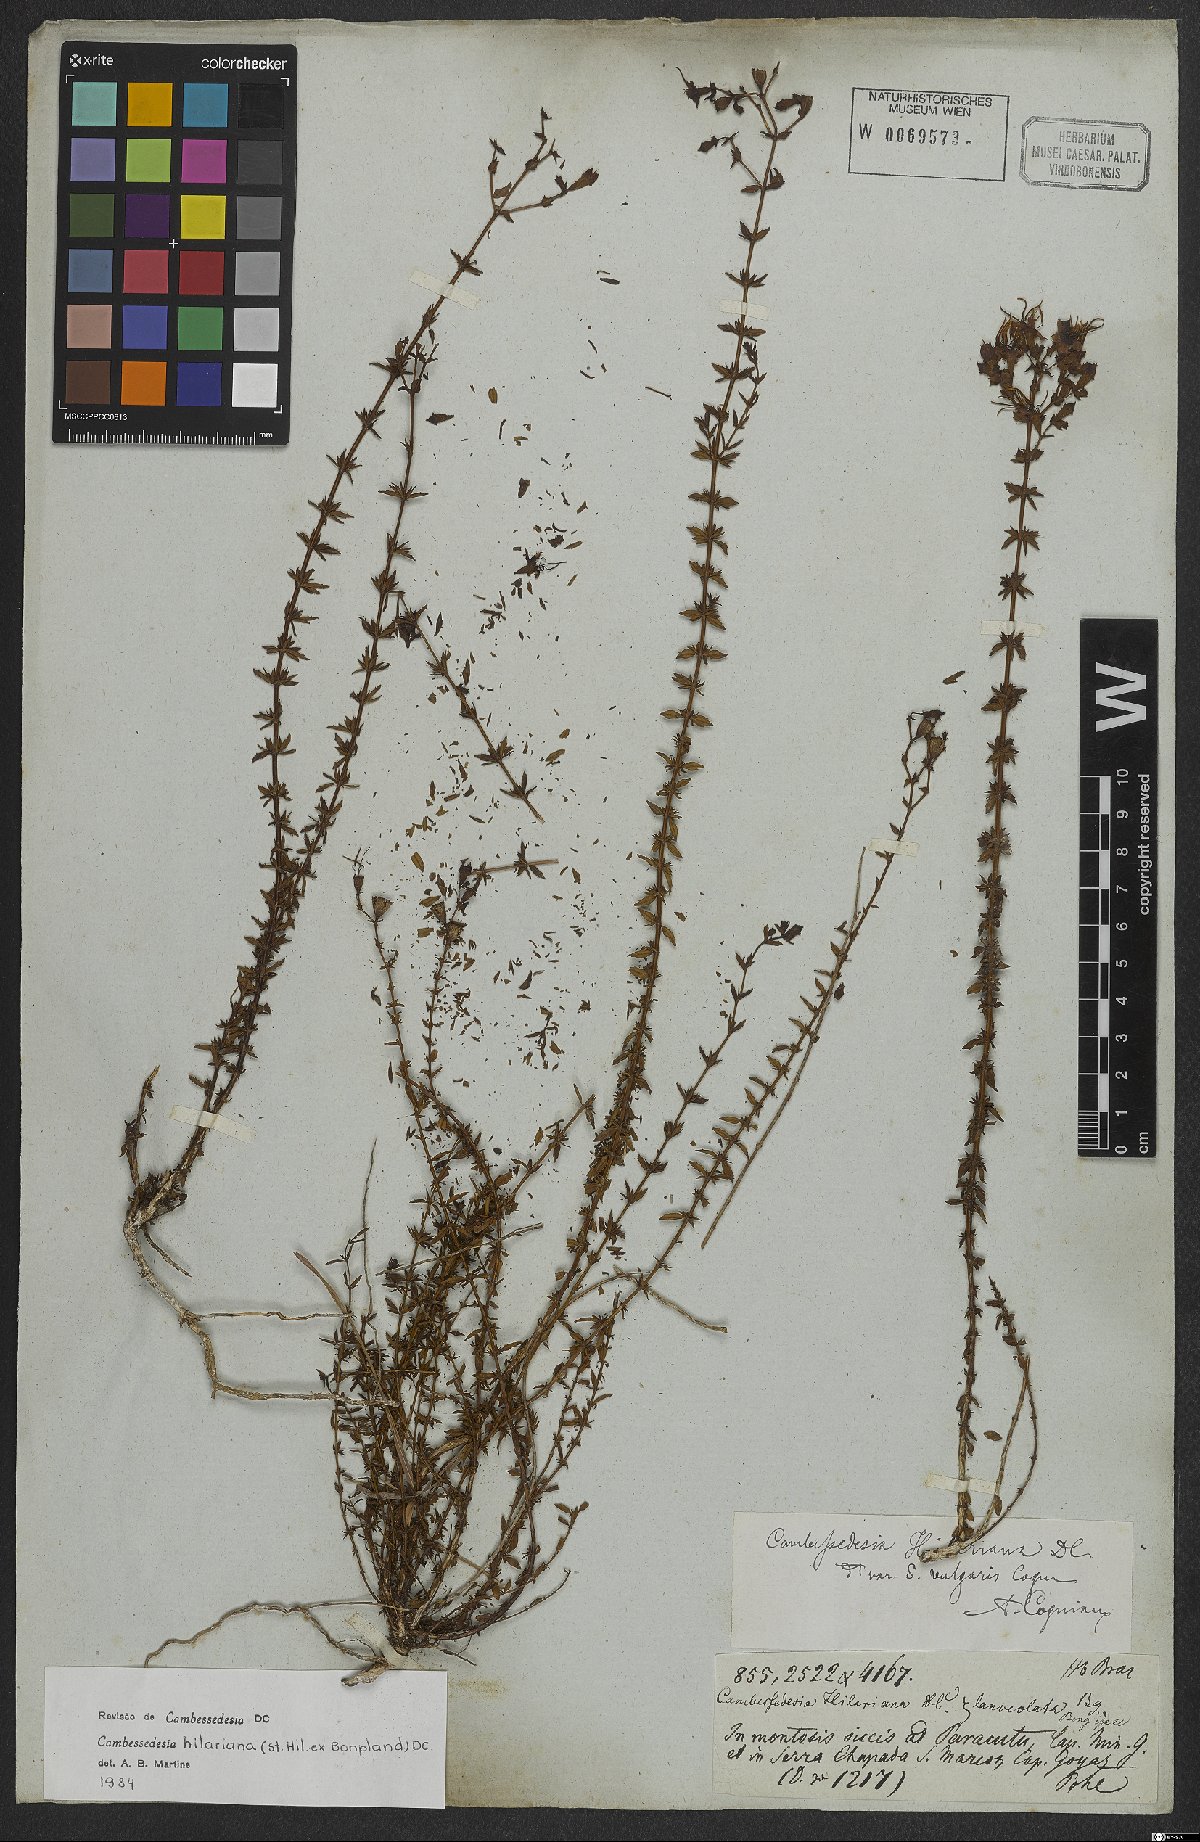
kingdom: Plantae
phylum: Tracheophyta
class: Magnoliopsida
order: Myrtales
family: Melastomataceae
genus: Cambessedesia
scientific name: Cambessedesia hilariana
